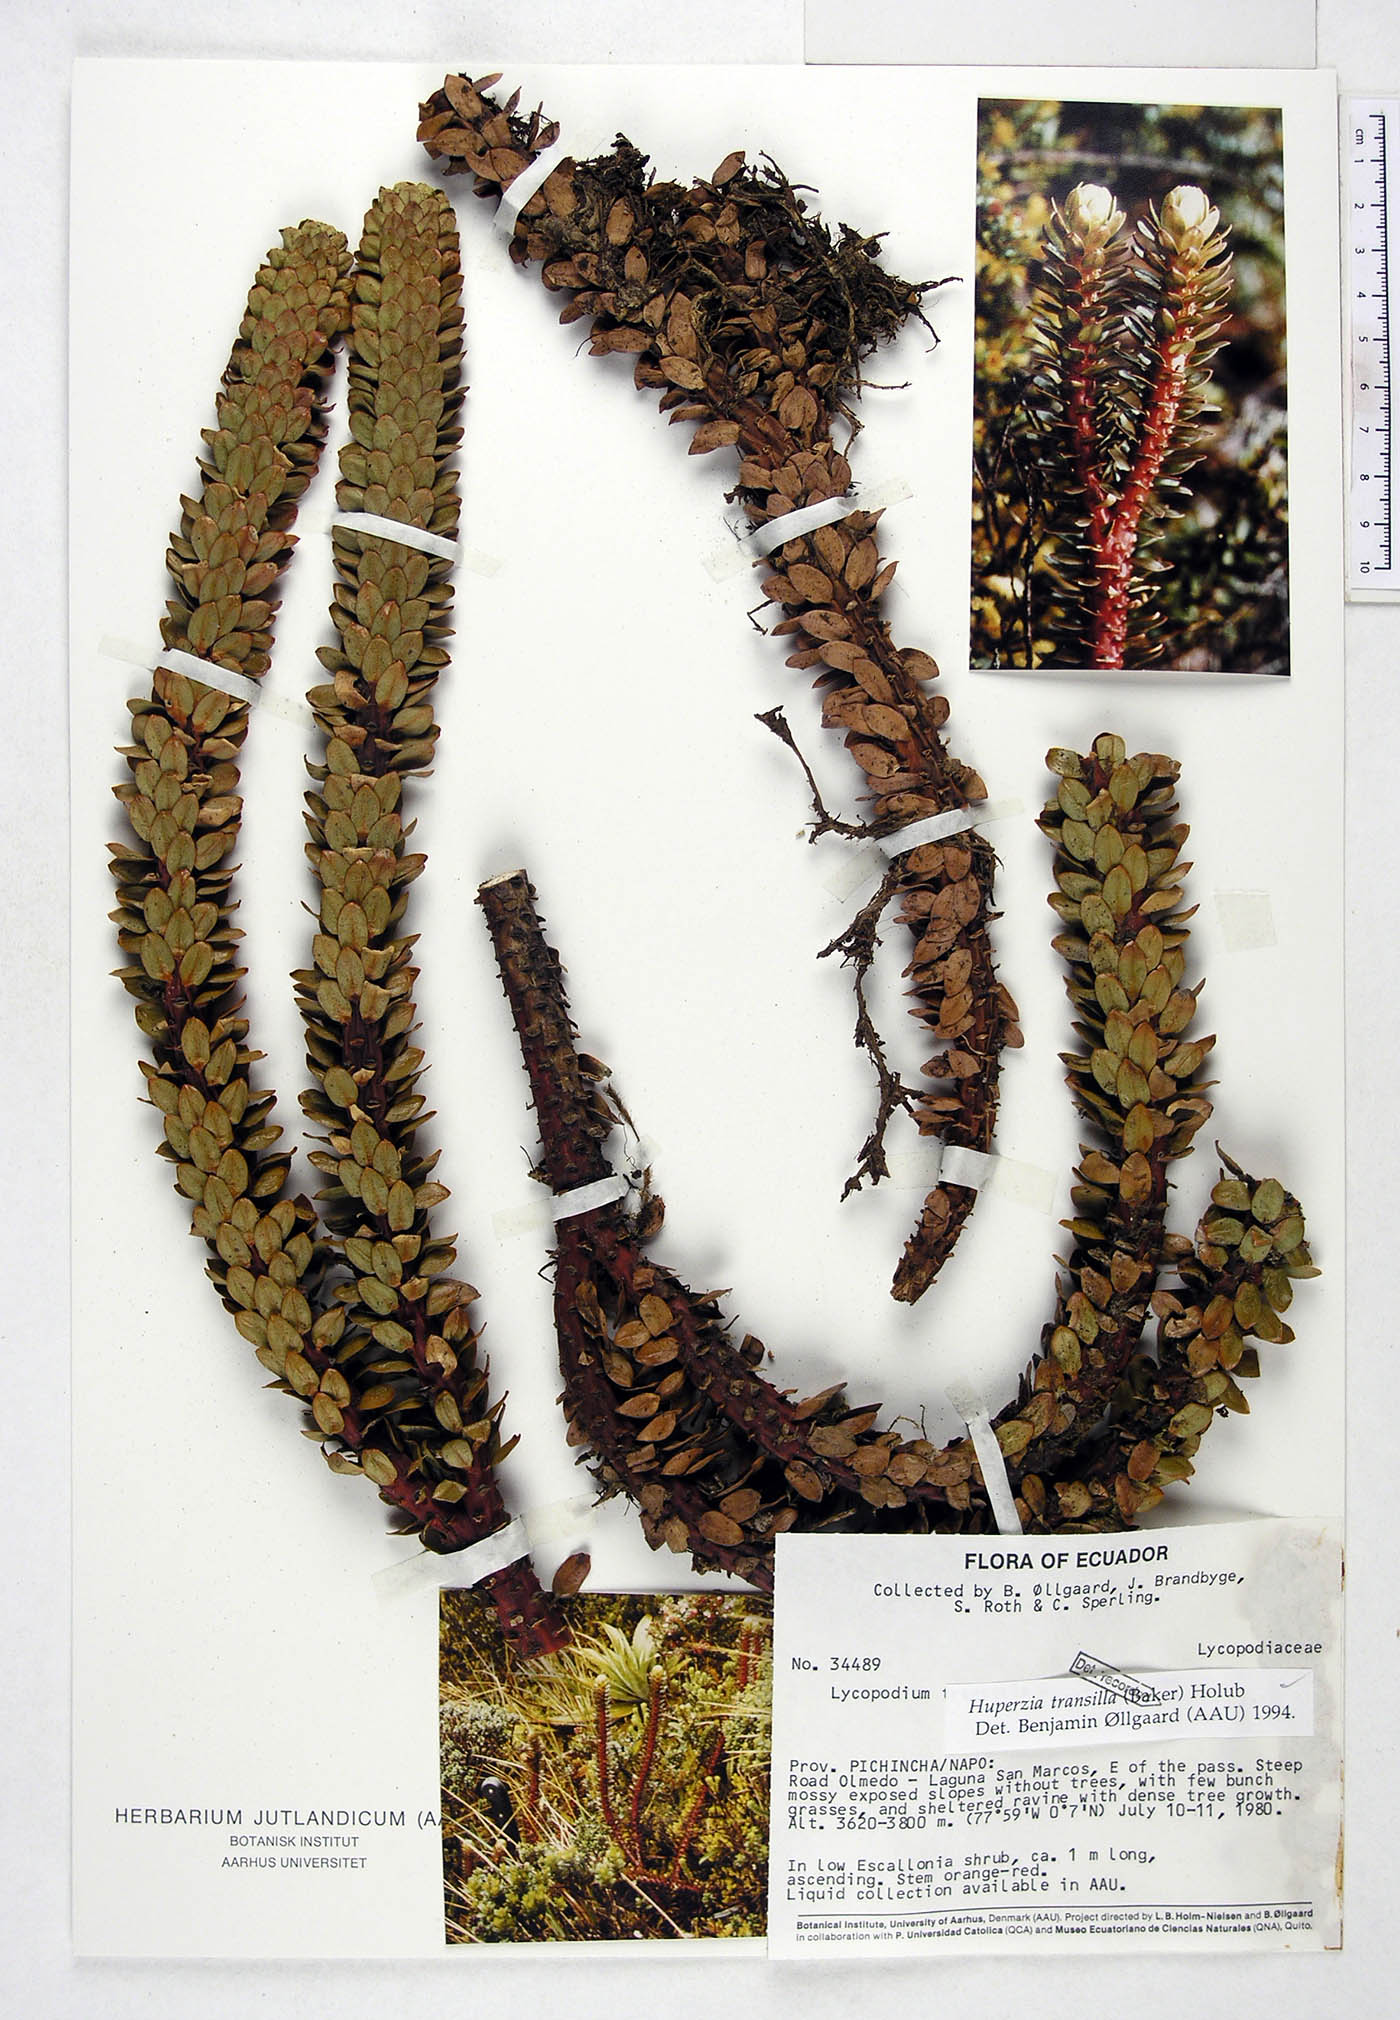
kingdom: Plantae
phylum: Tracheophyta
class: Lycopodiopsida
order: Lycopodiales
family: Lycopodiaceae
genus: Phlegmariurus
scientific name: Phlegmariurus transilla
